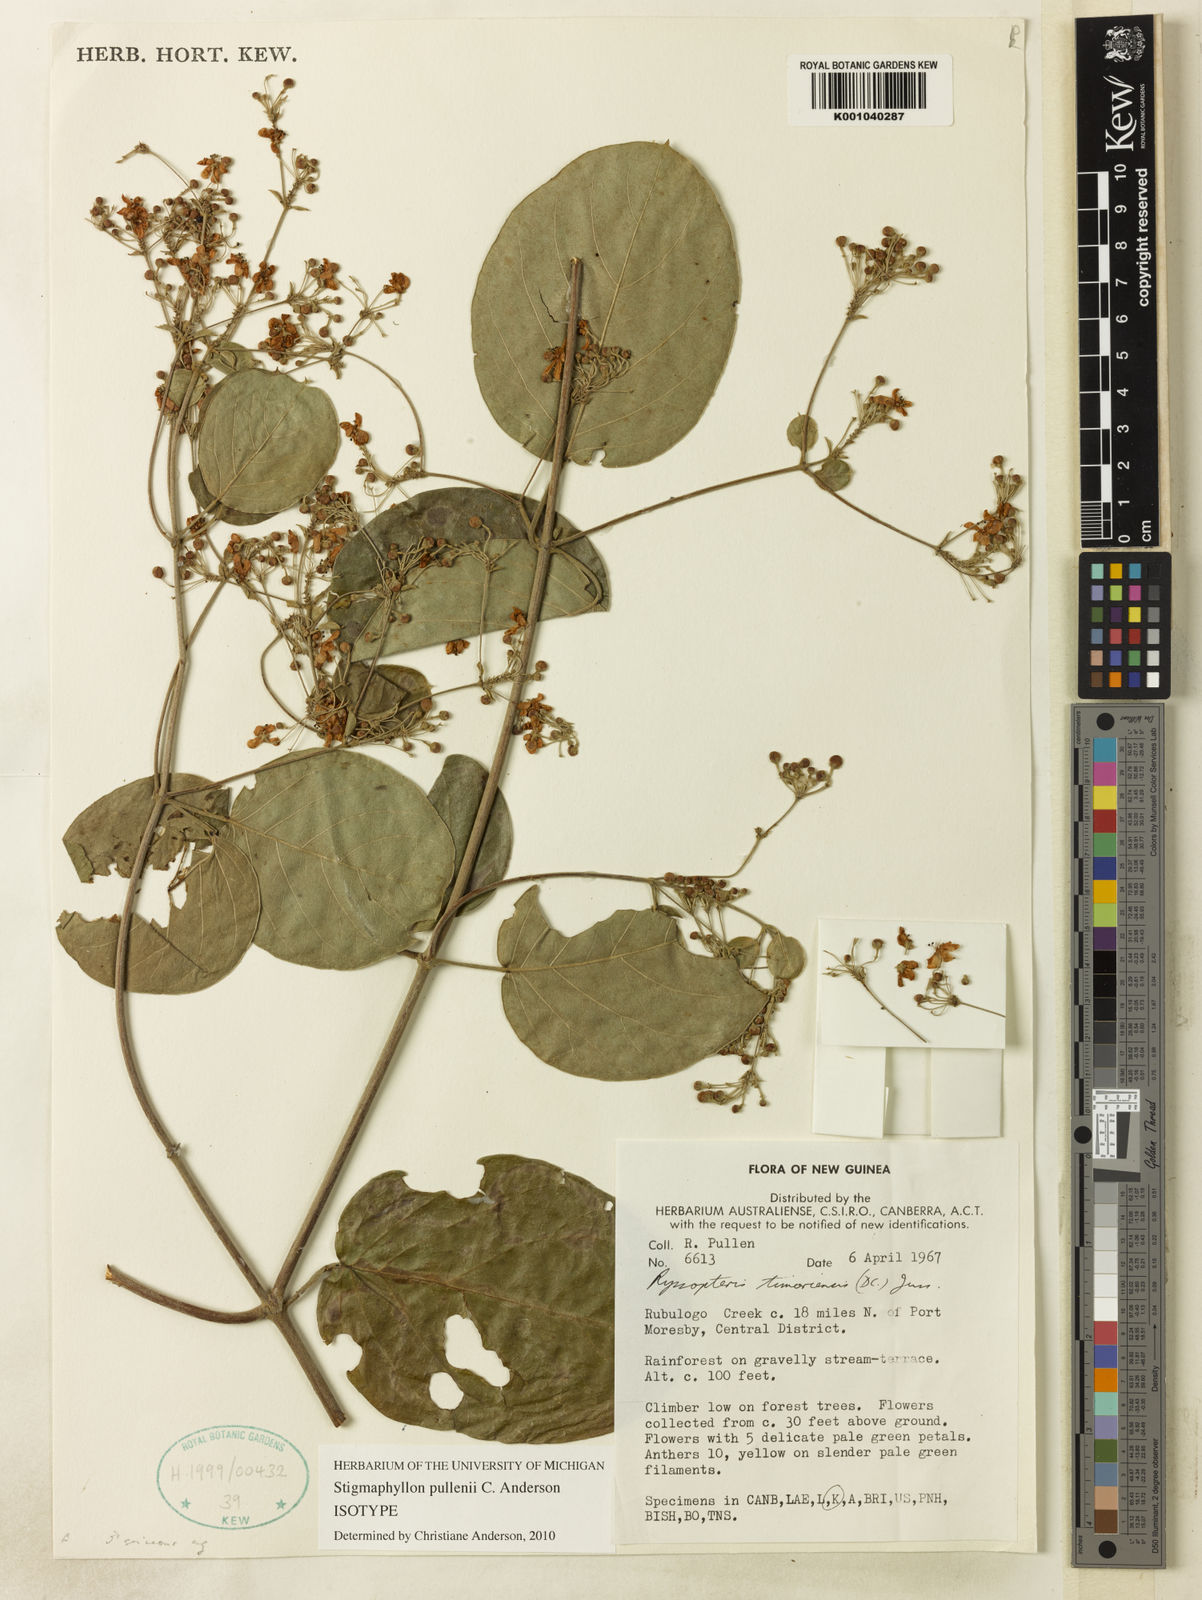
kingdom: Plantae
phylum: Tracheophyta
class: Magnoliopsida
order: Malpighiales
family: Malpighiaceae
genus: Stigmaphyllon
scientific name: Stigmaphyllon pullenii
